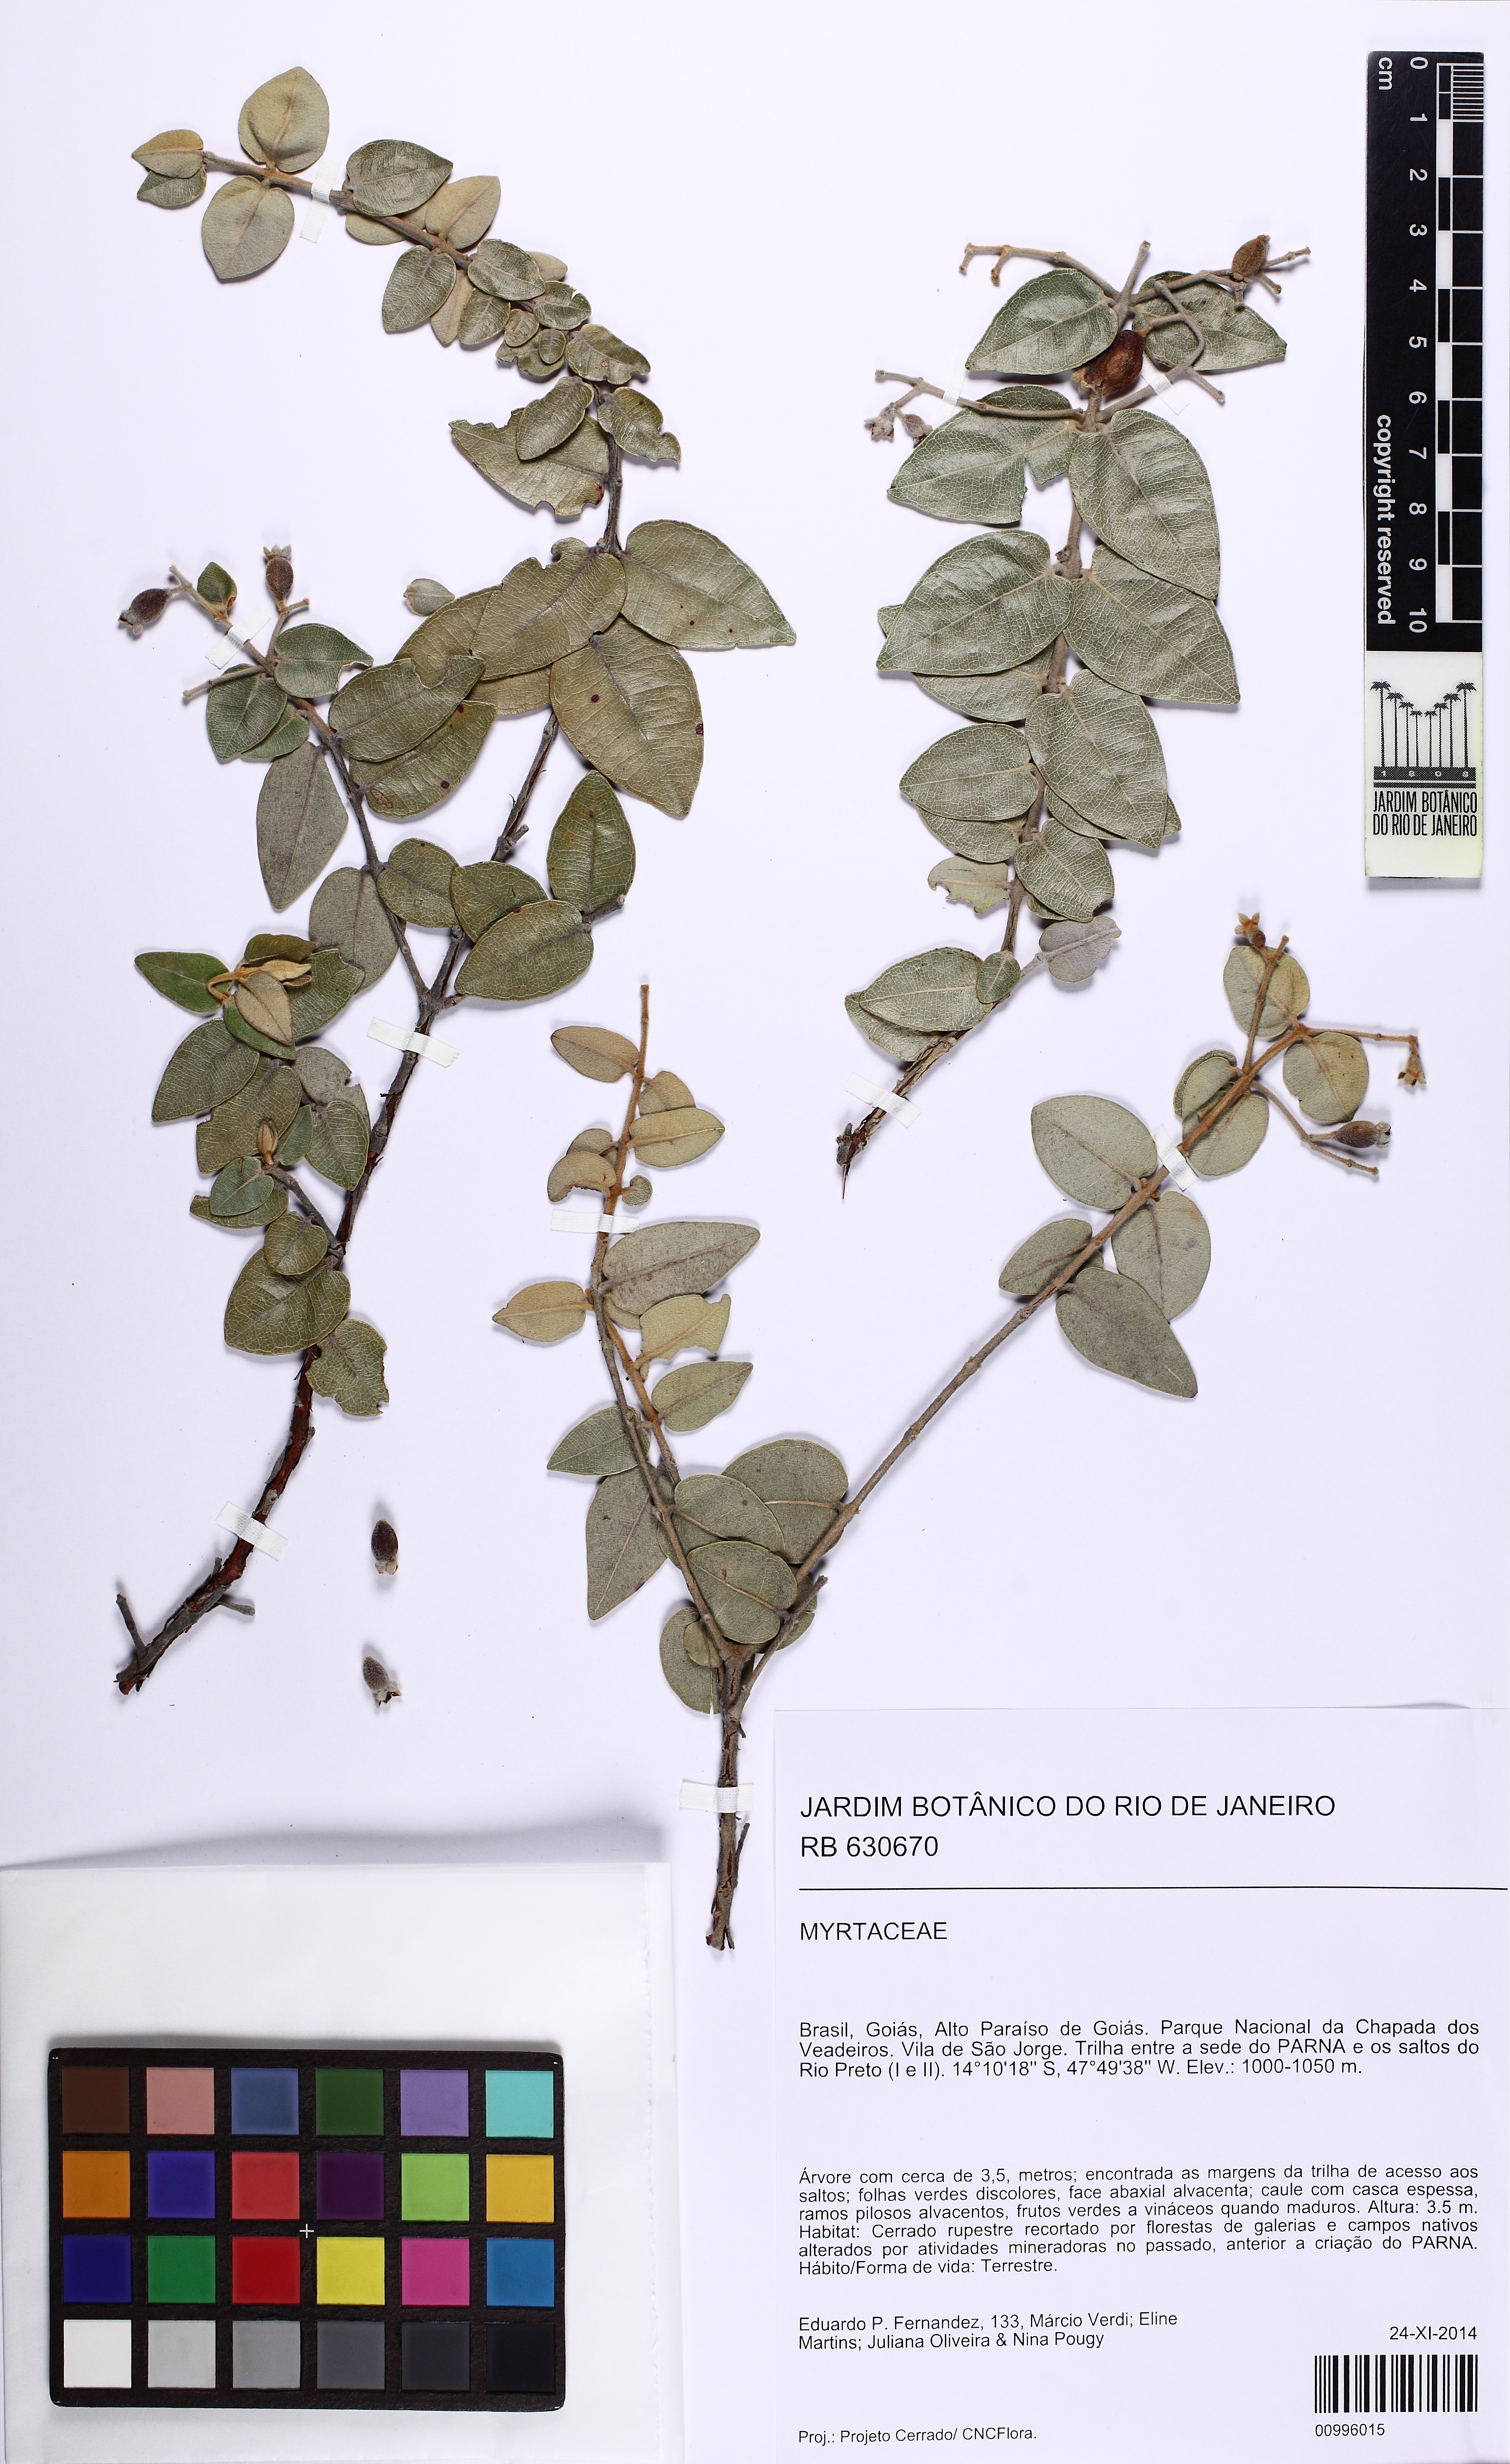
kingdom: Plantae
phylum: Tracheophyta
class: Magnoliopsida
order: Myrtales
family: Myrtaceae
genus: Myrcia
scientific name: Myrcia bella
